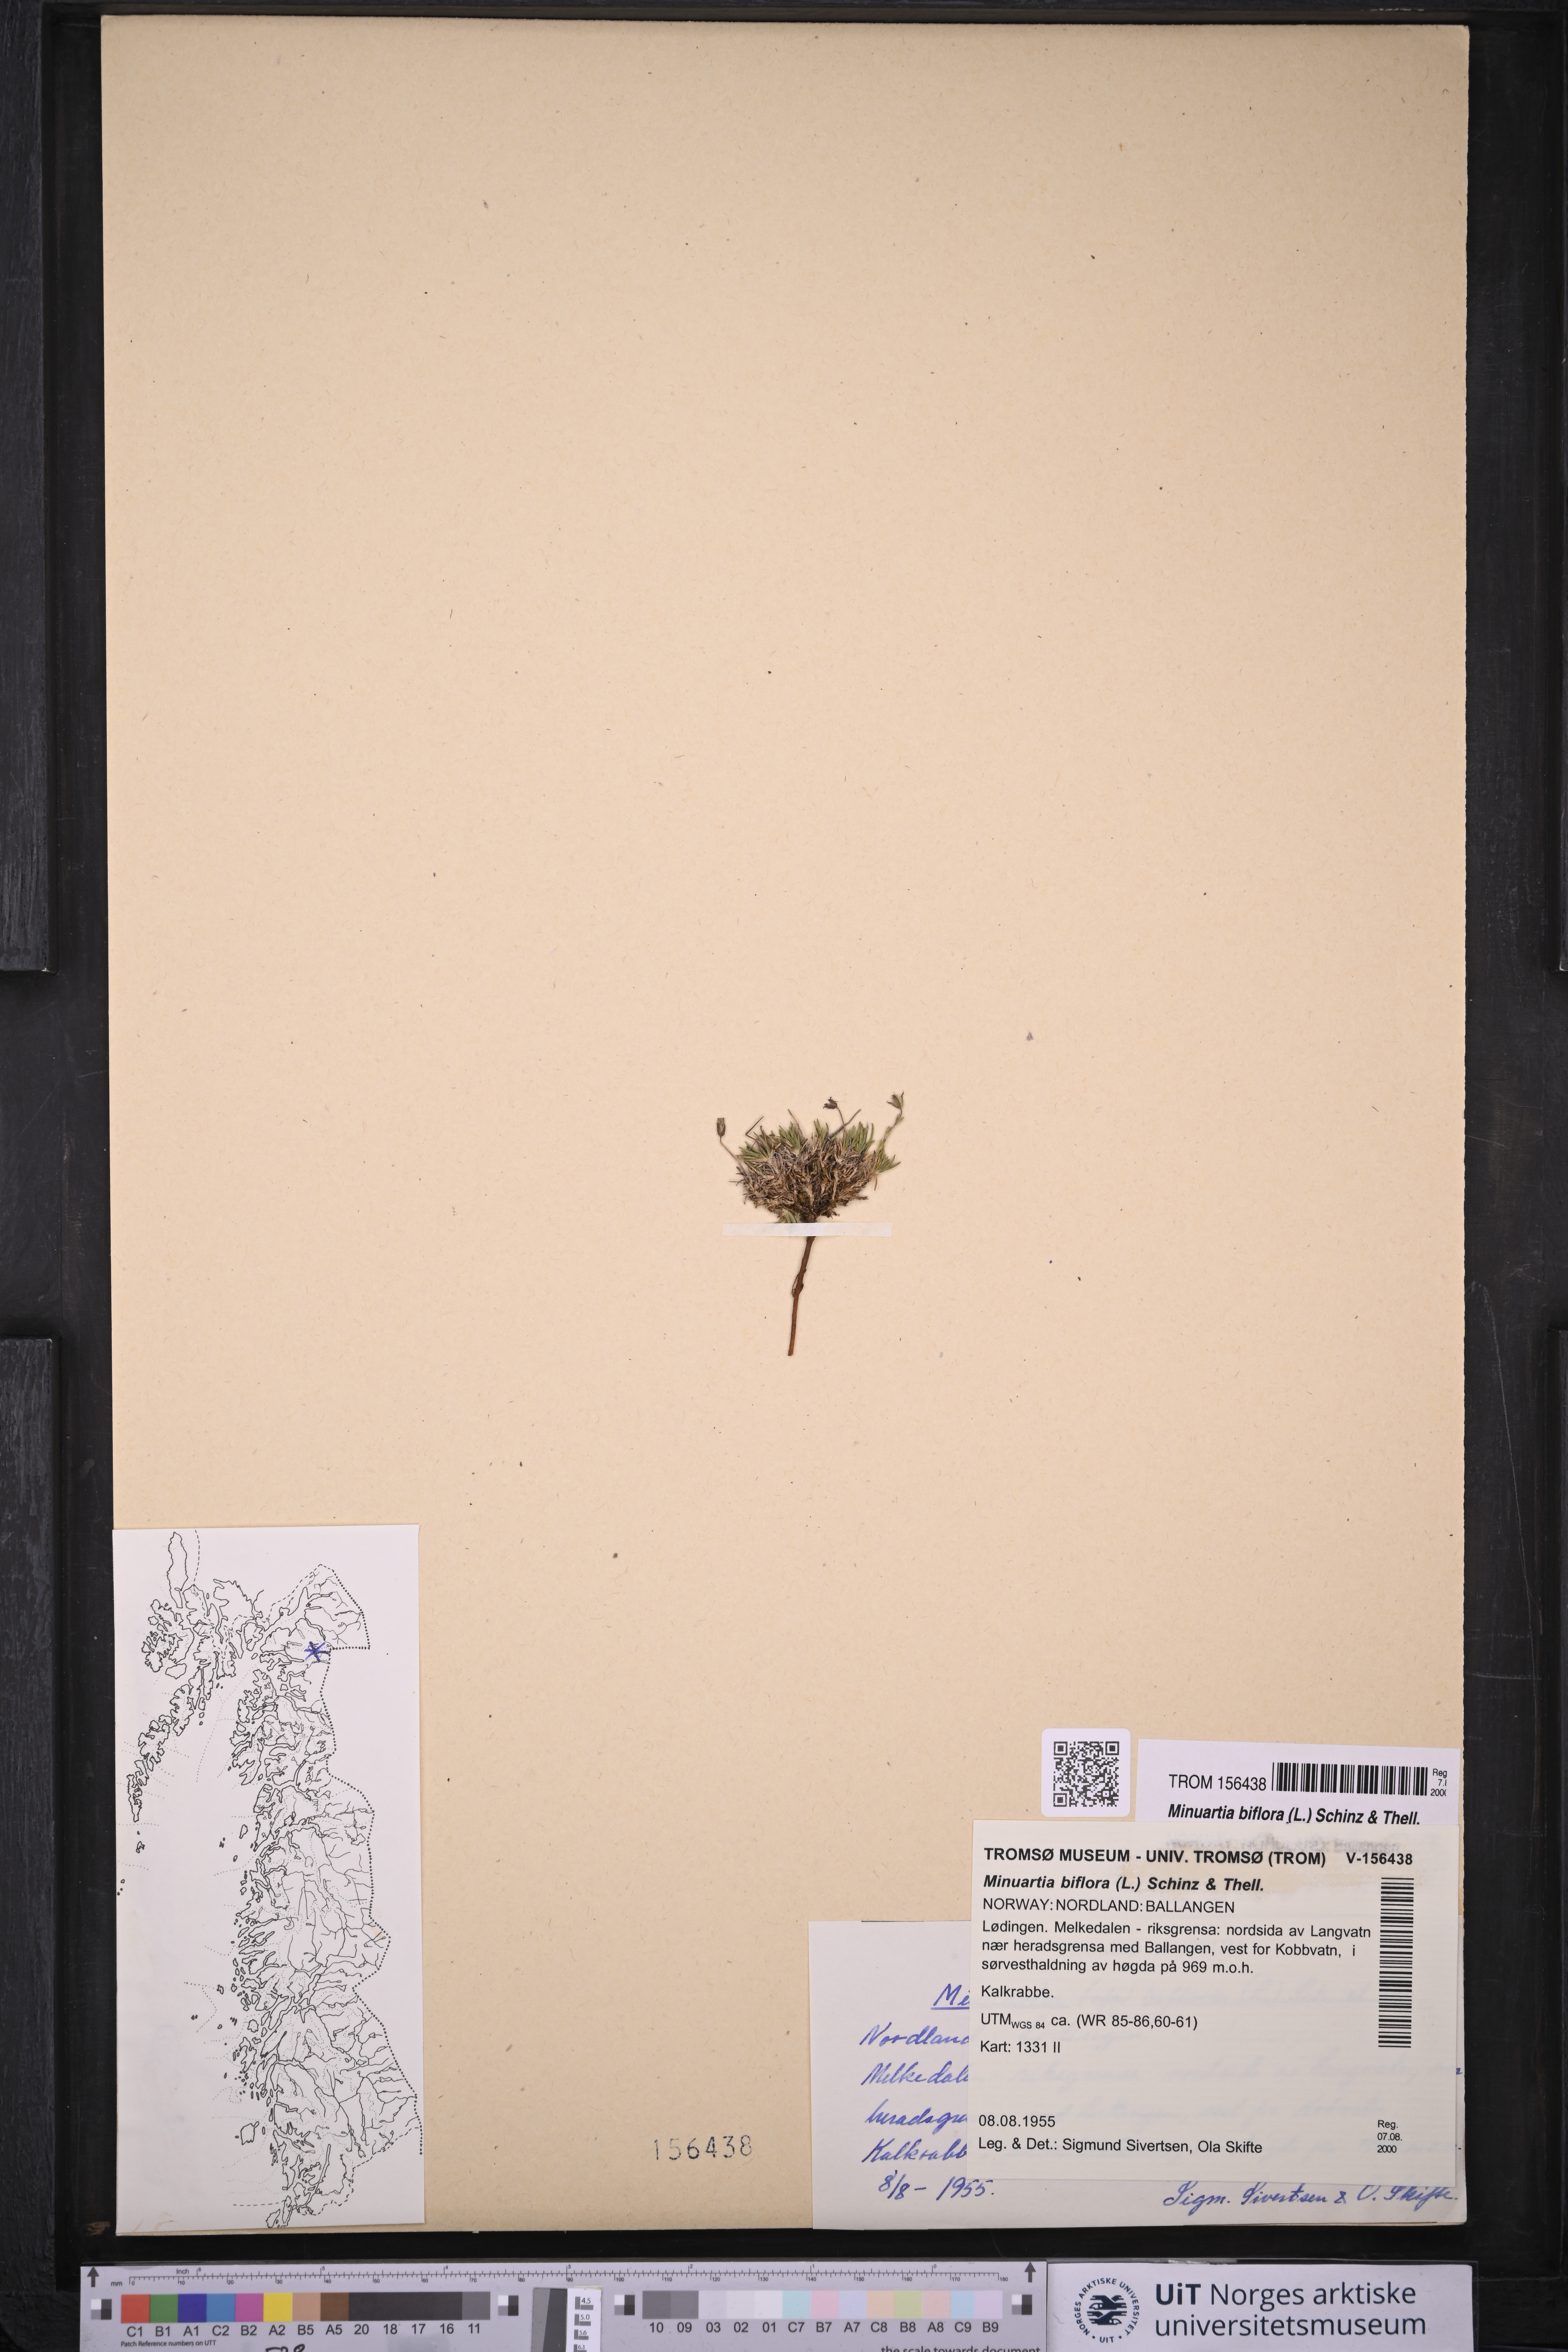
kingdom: Plantae
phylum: Tracheophyta
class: Magnoliopsida
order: Caryophyllales
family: Caryophyllaceae
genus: Cherleria
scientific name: Cherleria biflora
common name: Mountain sandwort
